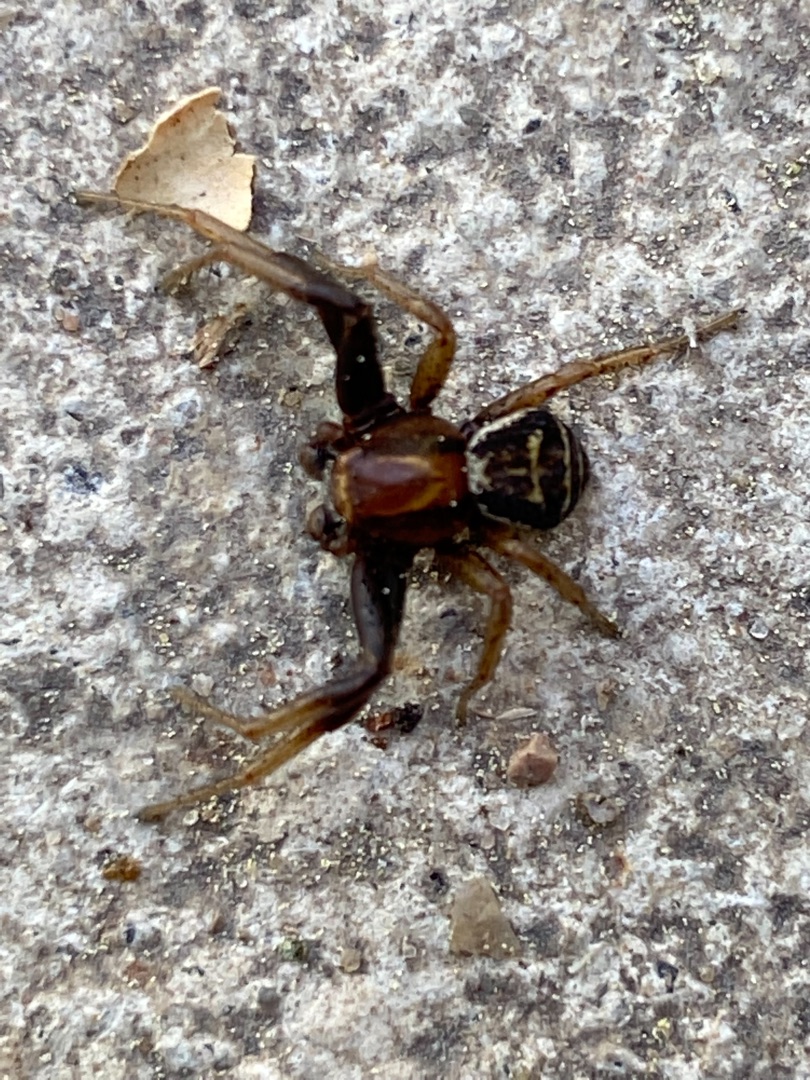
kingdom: Animalia
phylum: Arthropoda
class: Arachnida
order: Araneae
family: Thomisidae
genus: Xysticus
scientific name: Xysticus ulmi
